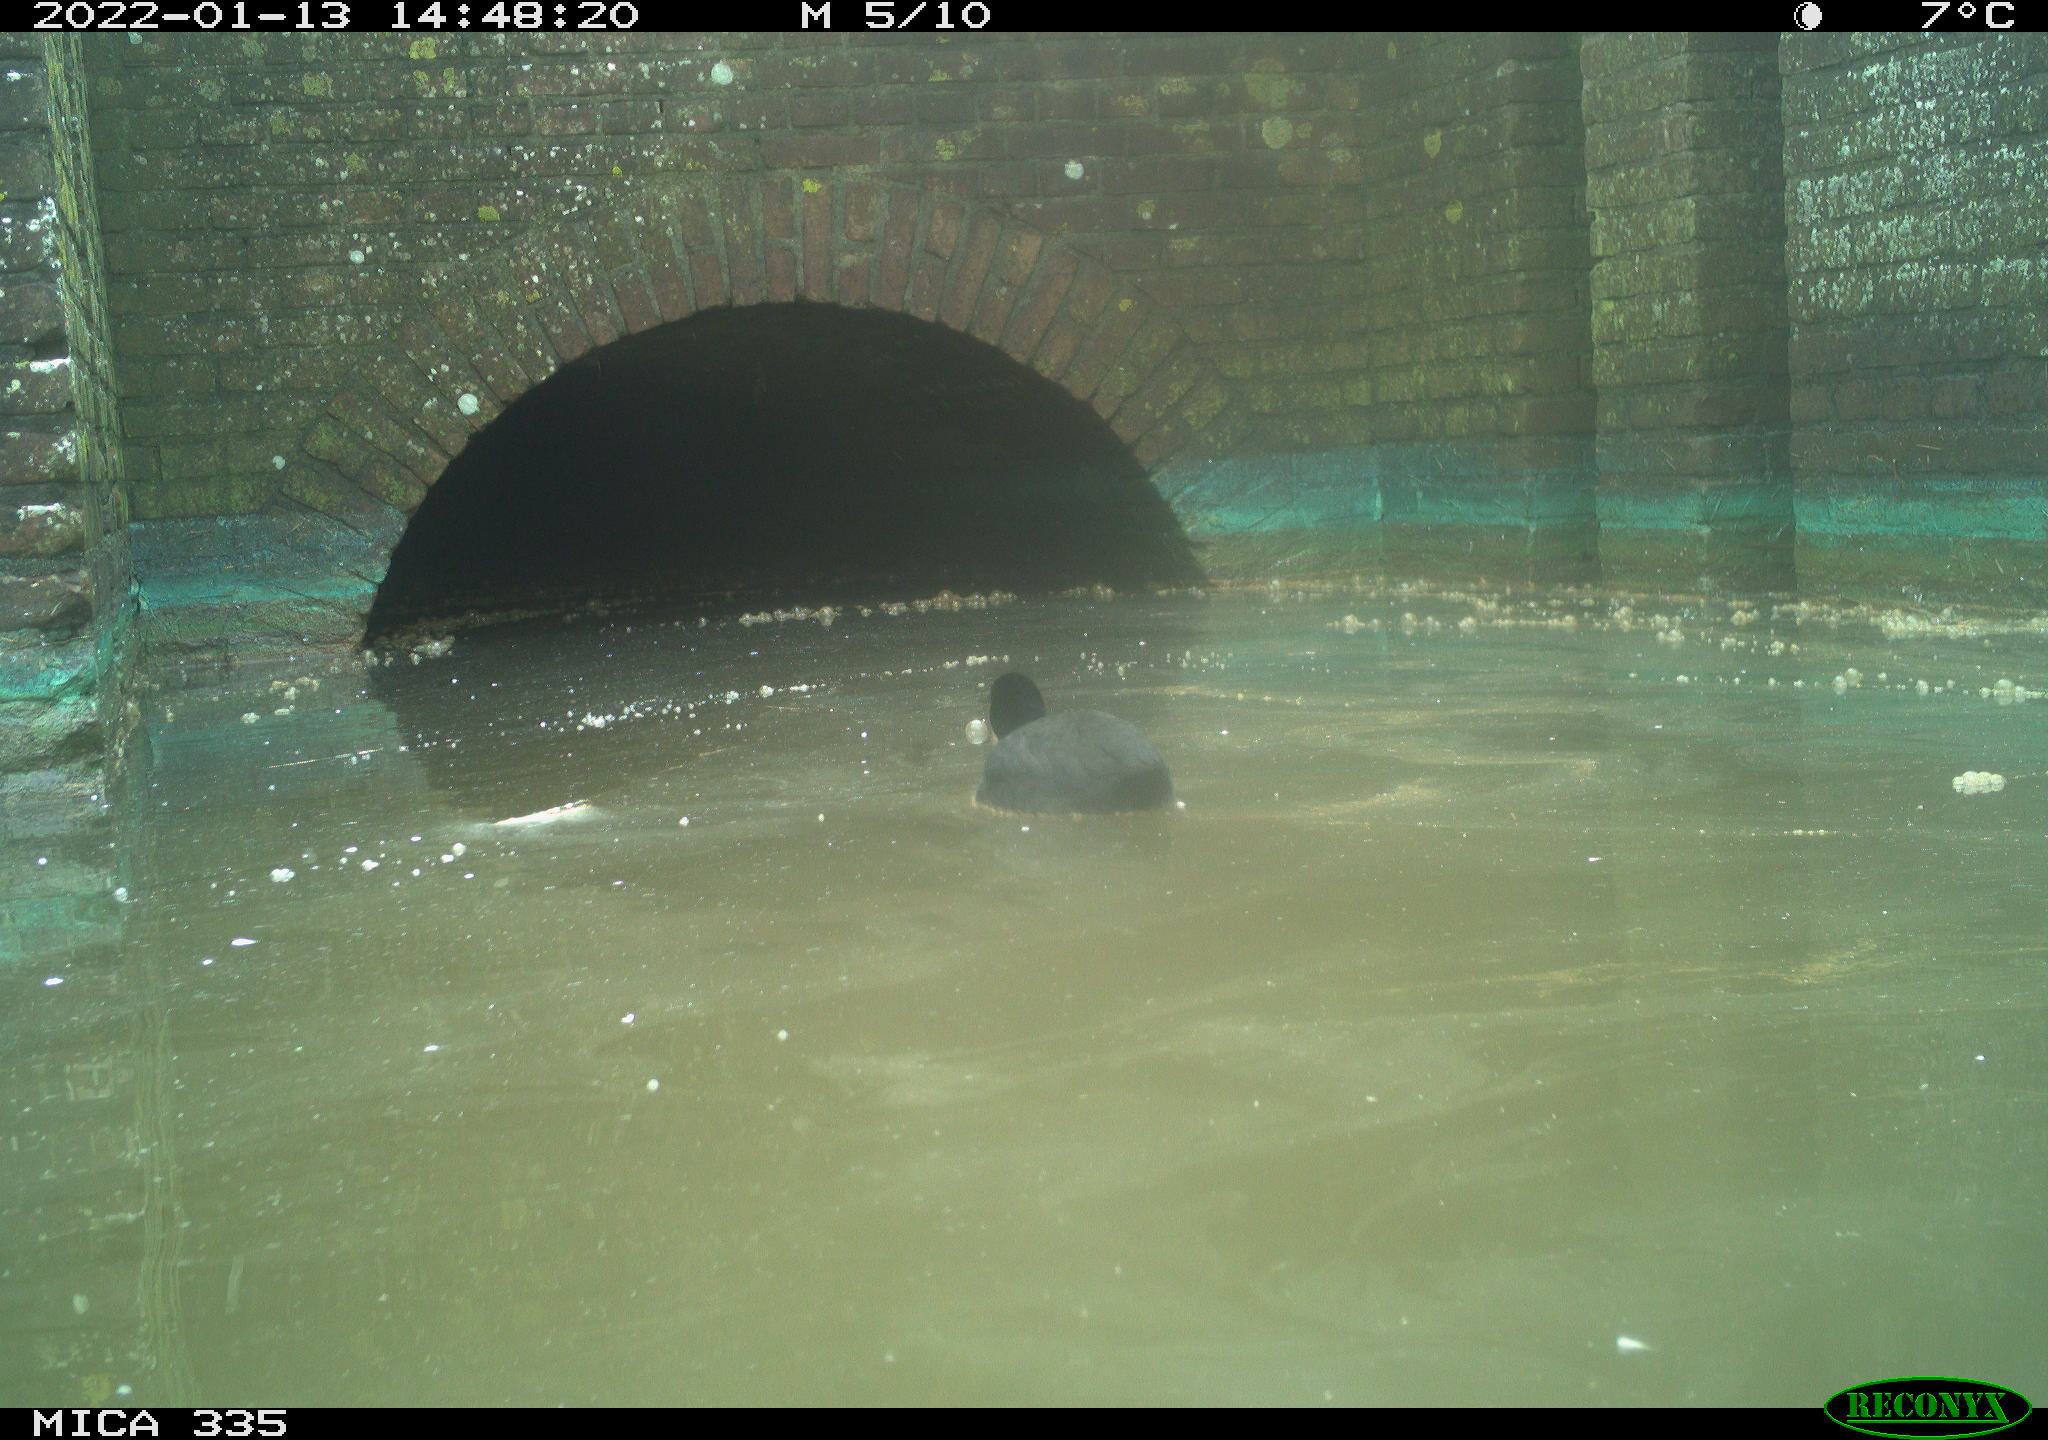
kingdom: Animalia
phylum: Chordata
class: Aves
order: Gruiformes
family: Rallidae
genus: Fulica
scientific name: Fulica atra
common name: Eurasian coot
